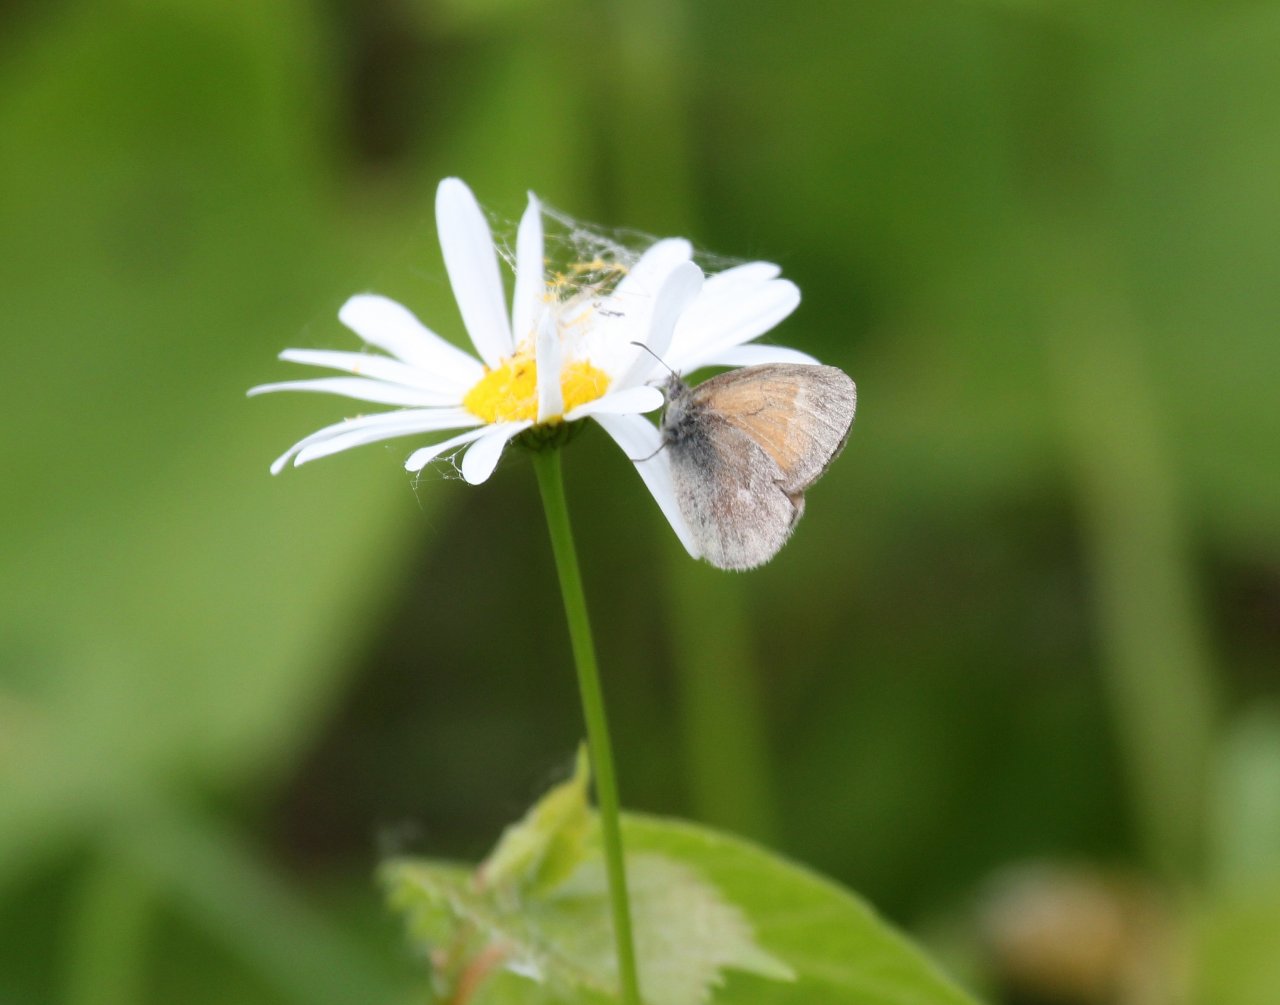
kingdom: Animalia
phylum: Arthropoda
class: Insecta
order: Lepidoptera
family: Nymphalidae
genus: Coenonympha
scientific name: Coenonympha tullia
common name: Large Heath
